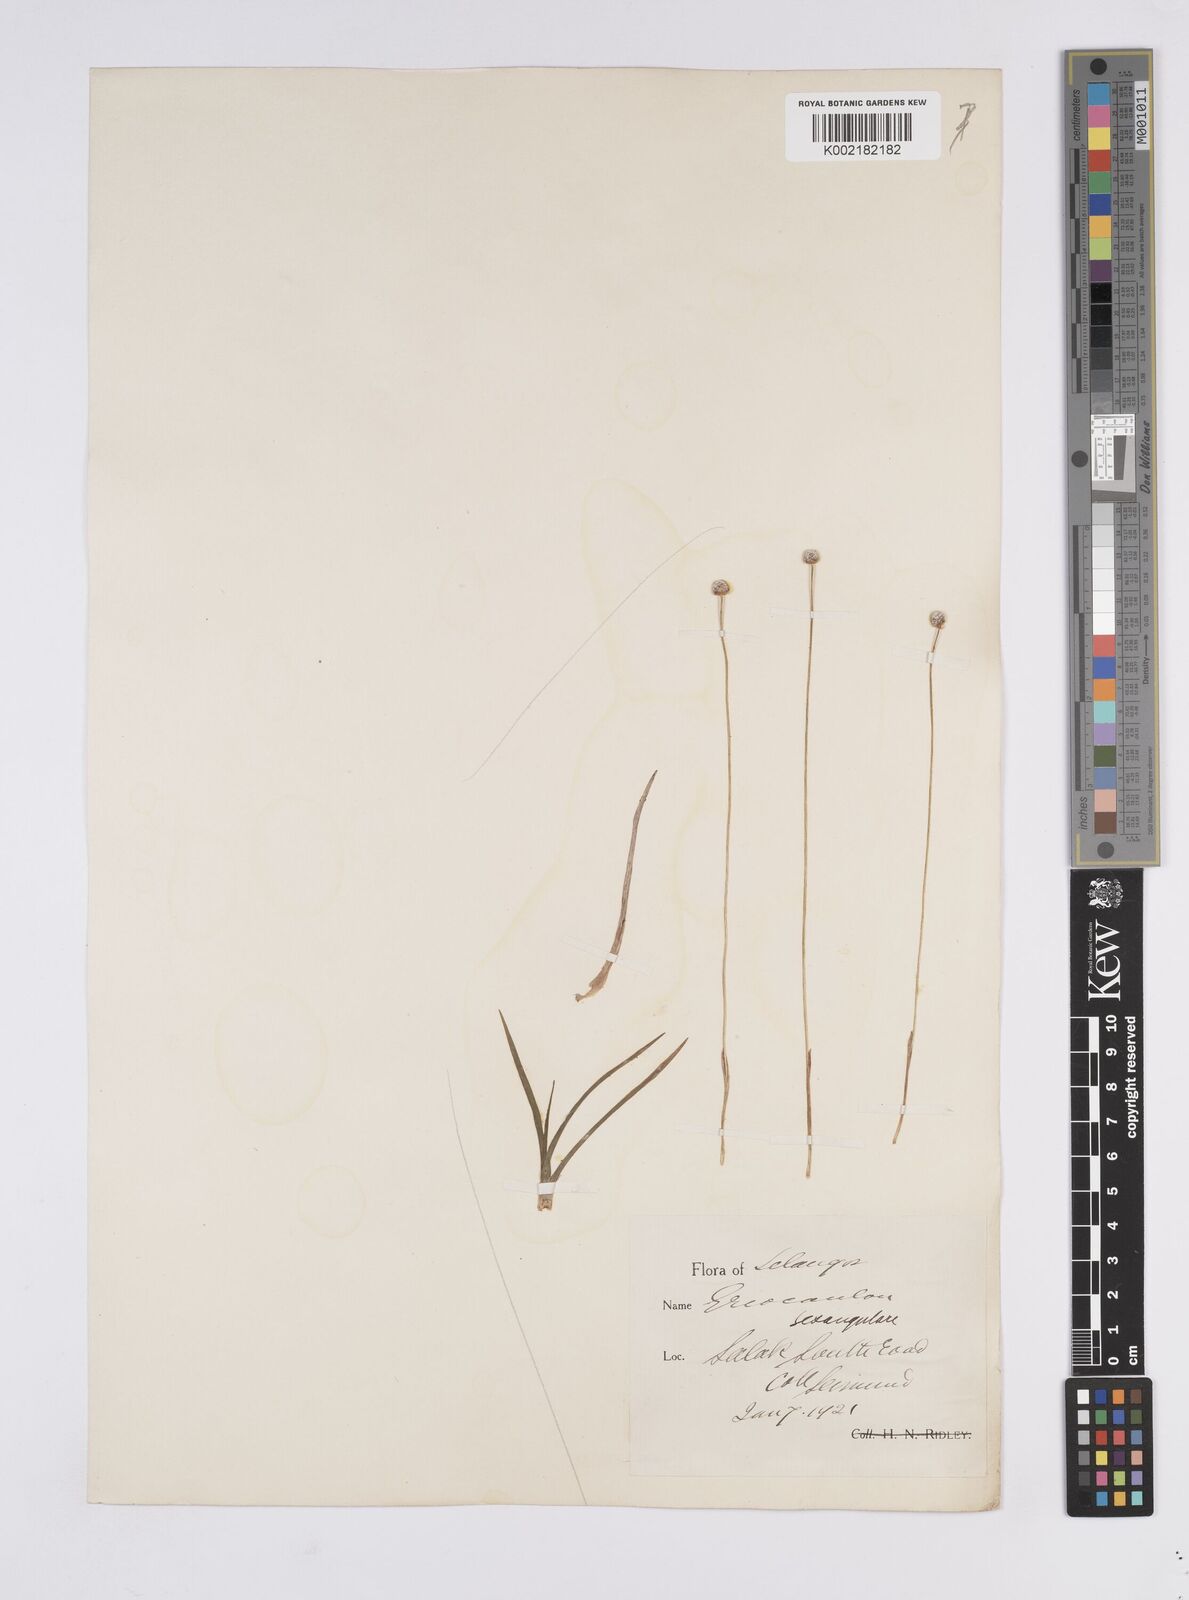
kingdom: Plantae
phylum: Tracheophyta
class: Liliopsida
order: Poales
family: Eriocaulaceae
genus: Eriocaulon
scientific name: Eriocaulon sexangulare
